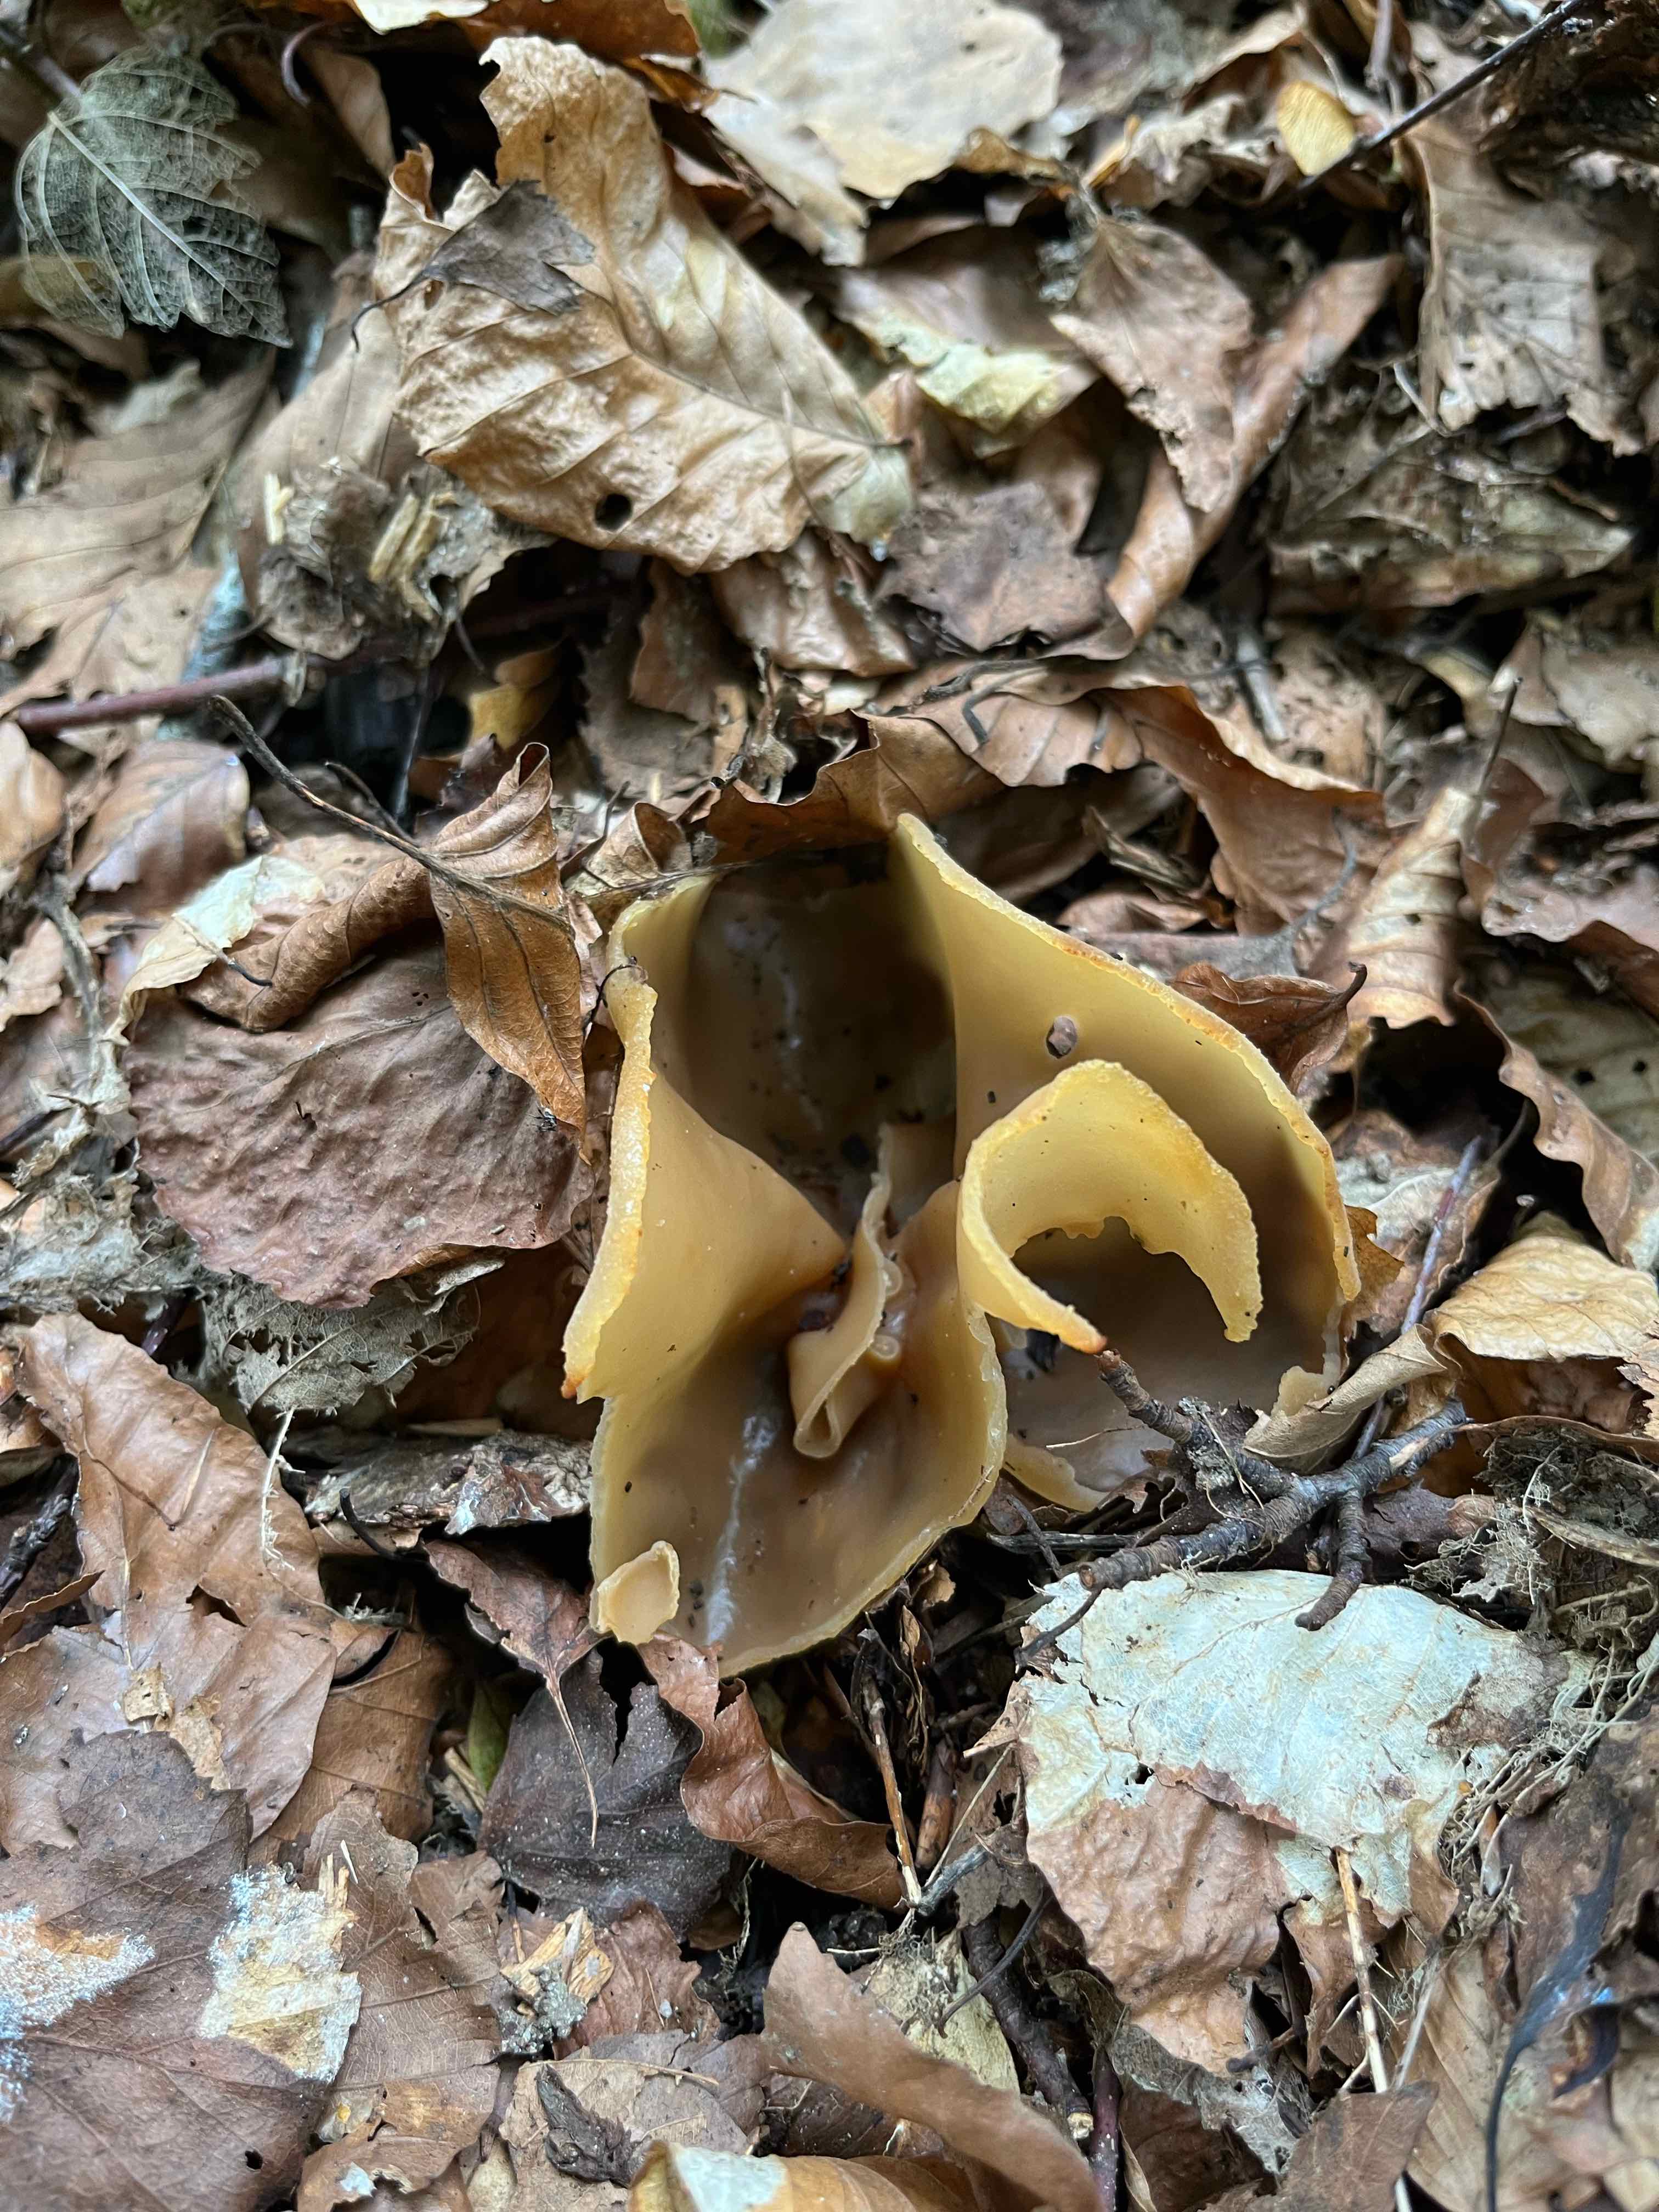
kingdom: Fungi
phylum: Ascomycota
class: Pezizomycetes
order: Pezizales
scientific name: Pezizales
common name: bægersvampordenen
